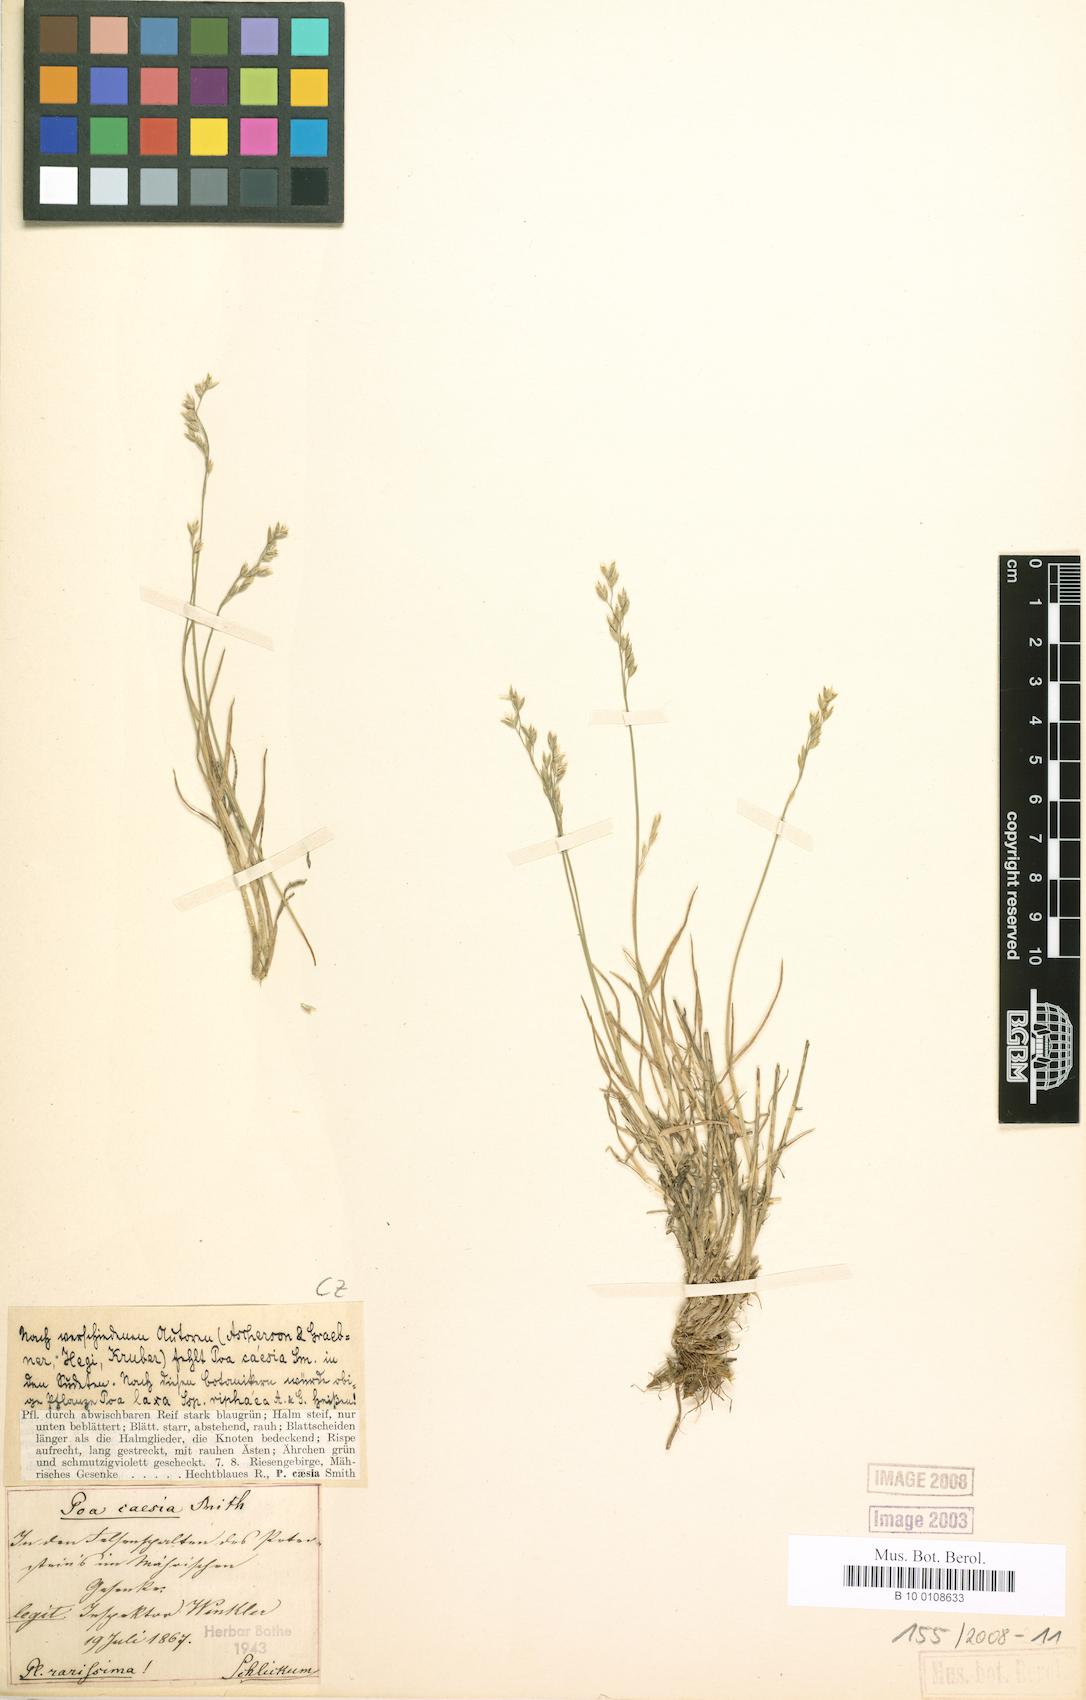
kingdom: Plantae
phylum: Tracheophyta
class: Liliopsida
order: Poales
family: Poaceae
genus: Poa
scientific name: Poa glauca
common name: Glaucous bluegrass
